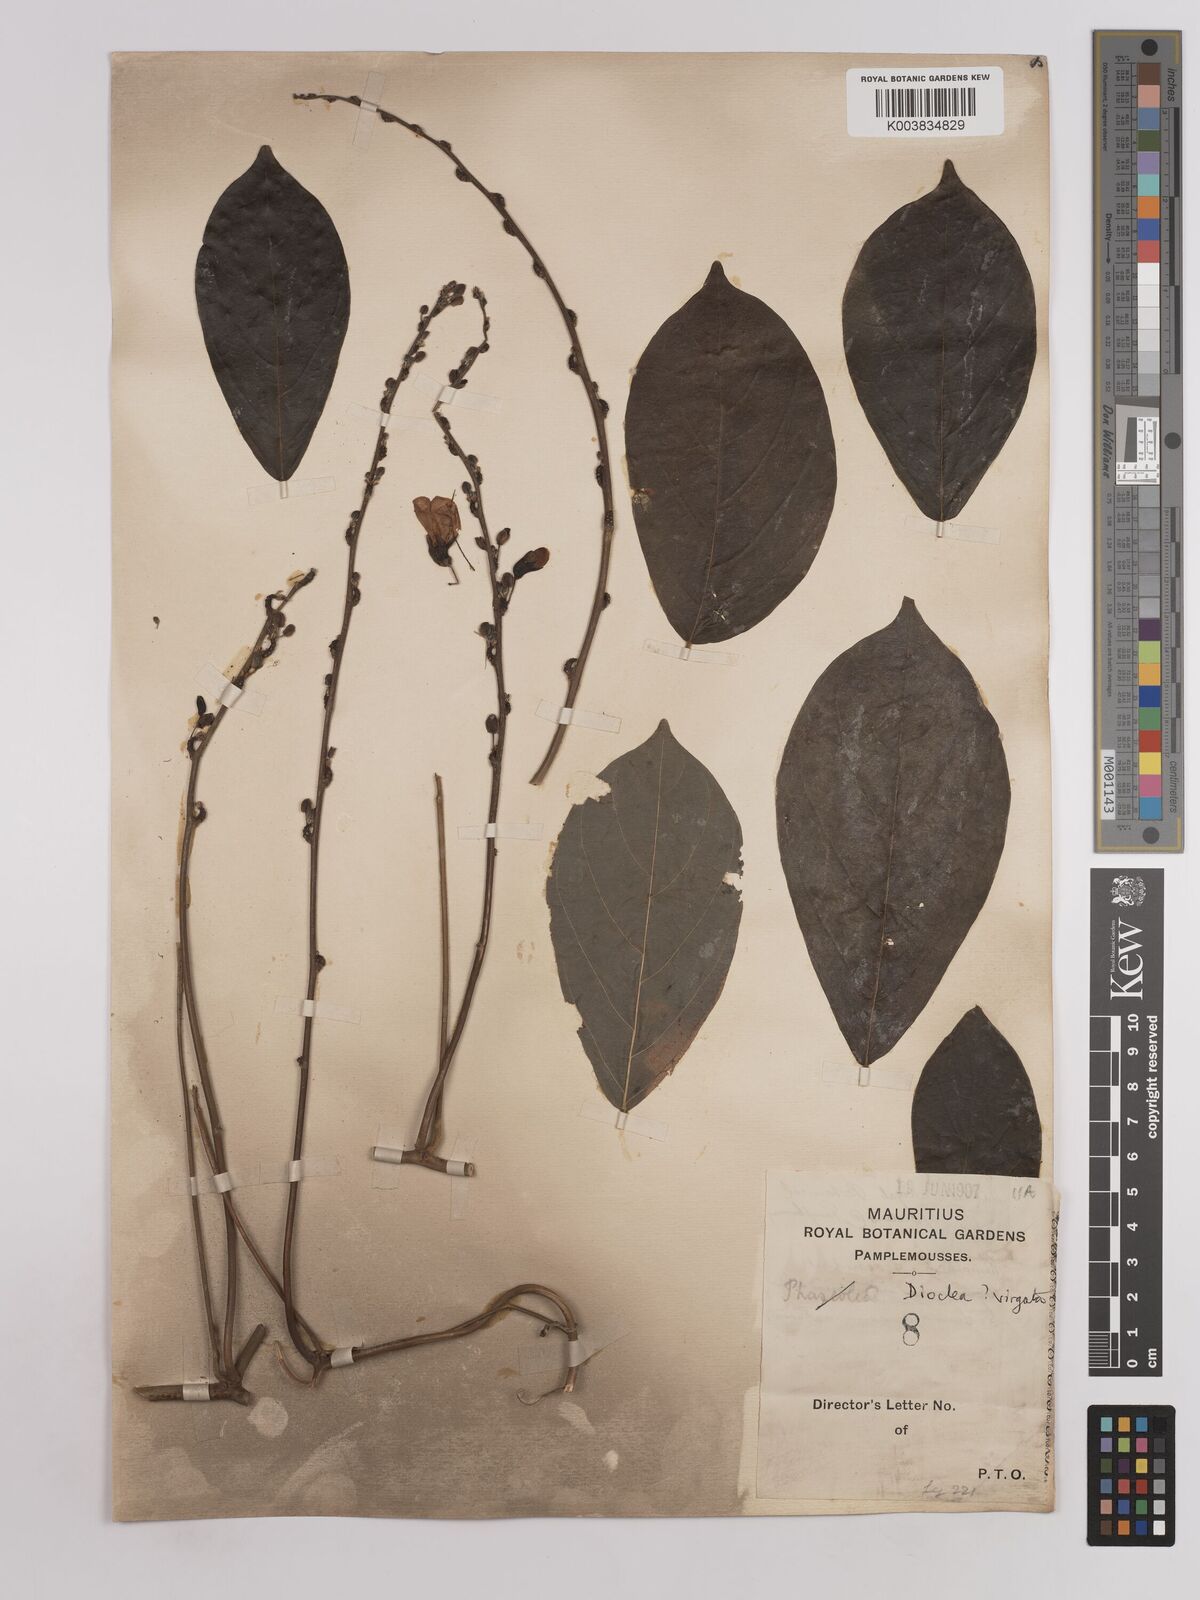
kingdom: Plantae
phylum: Tracheophyta
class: Magnoliopsida
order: Fabales
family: Fabaceae
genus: Dioclea
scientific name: Dioclea virgata
